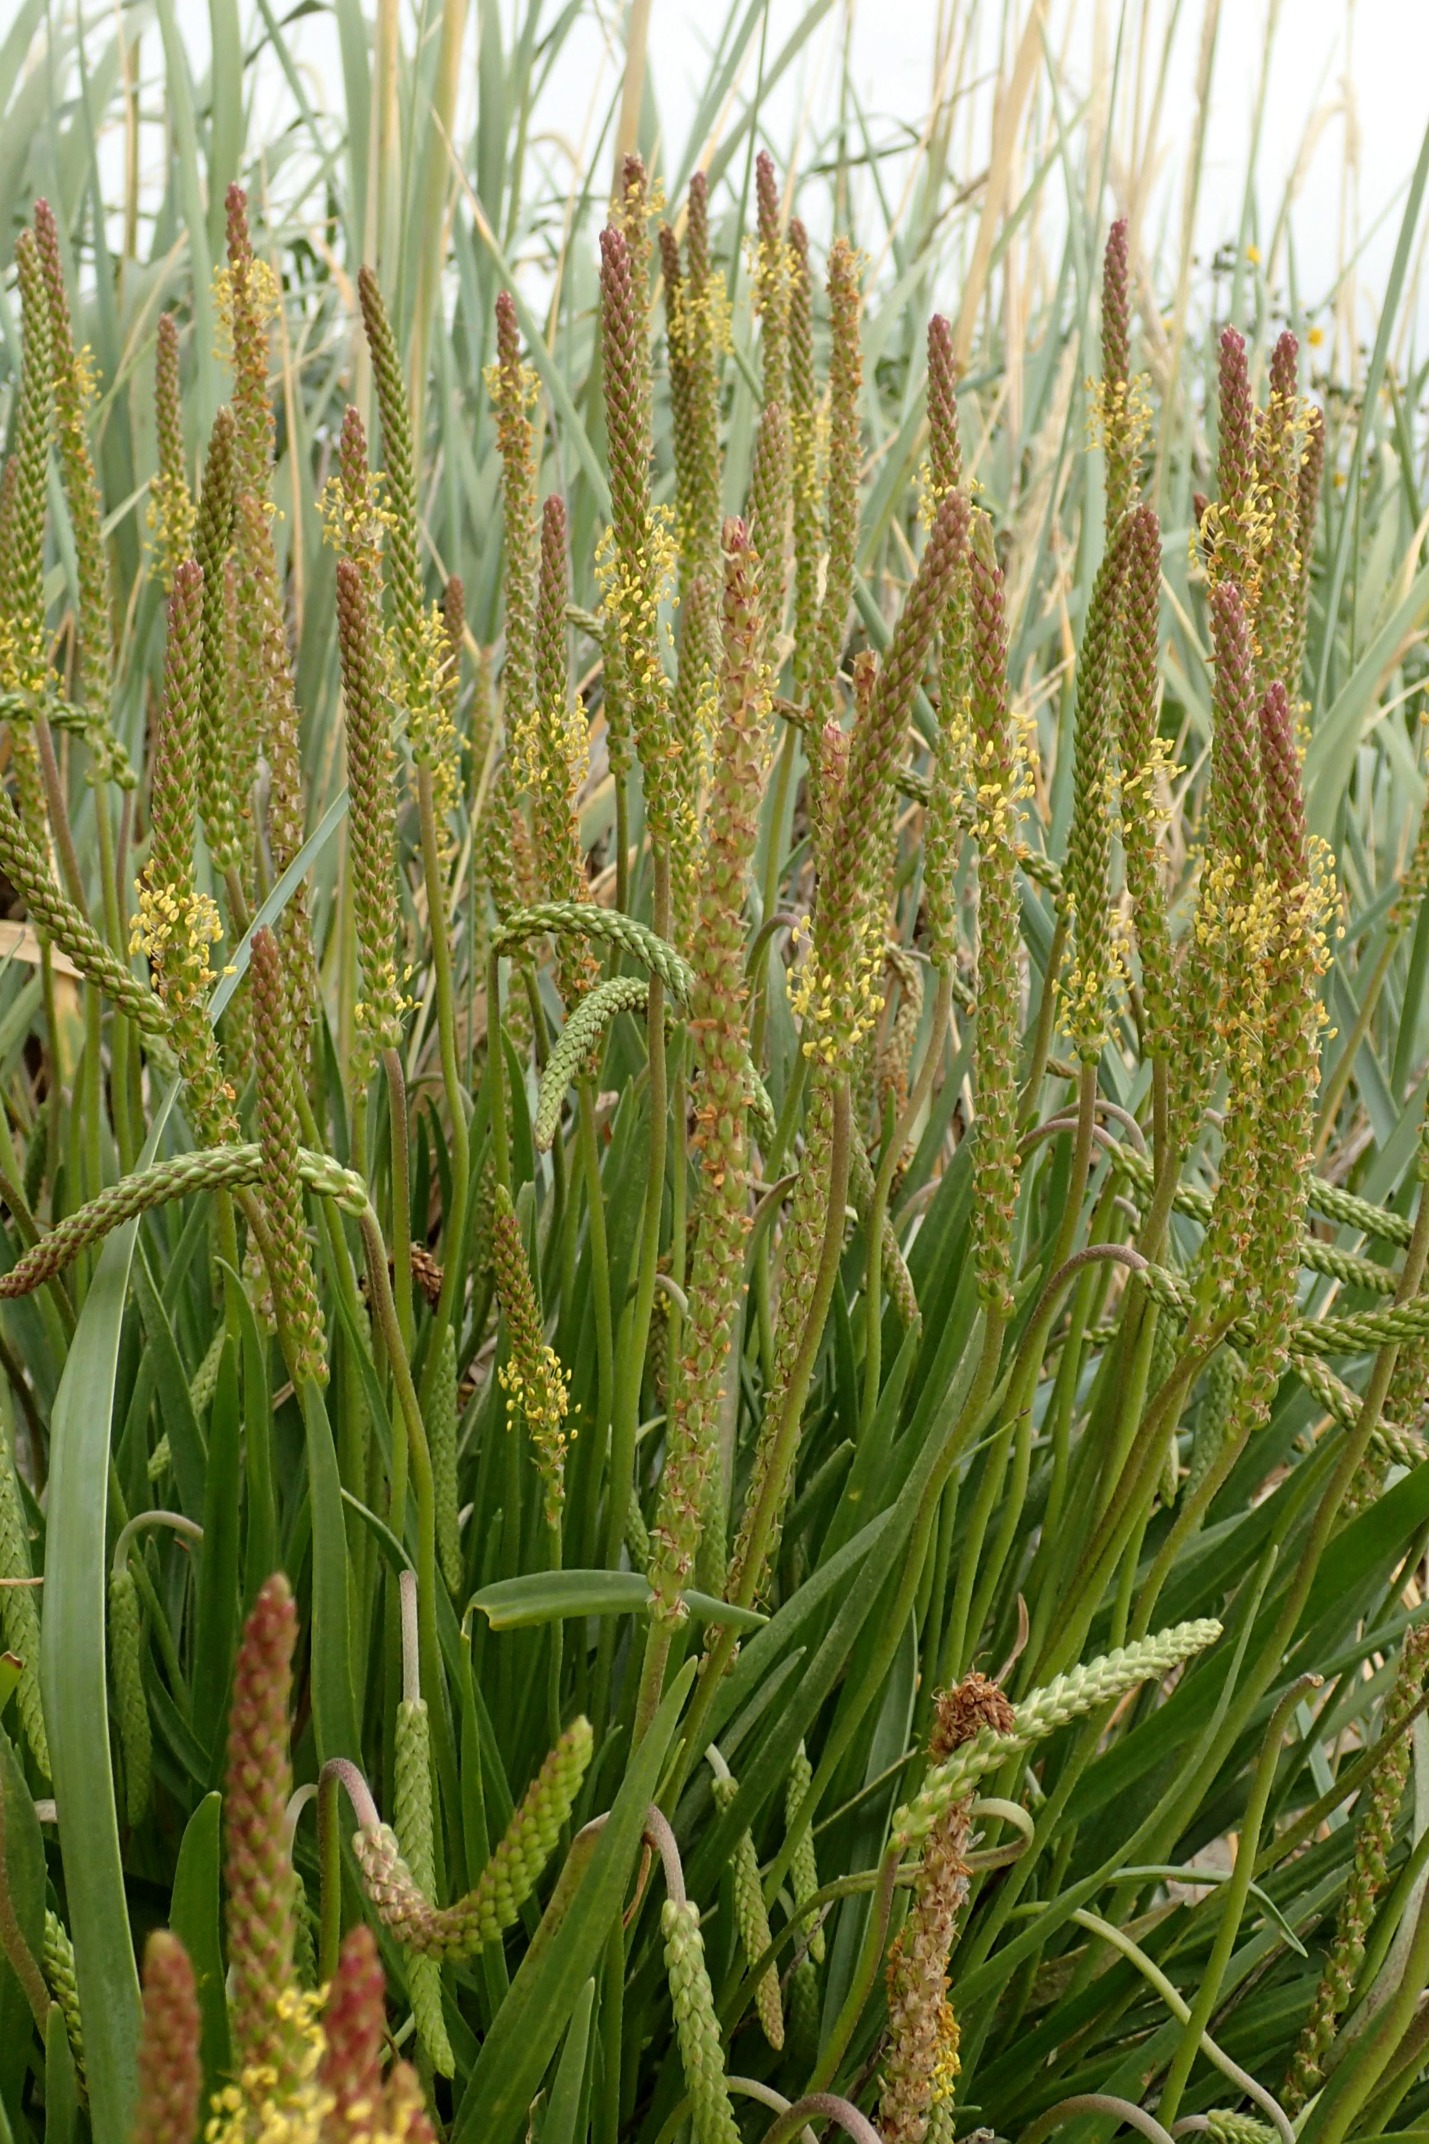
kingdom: Plantae
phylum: Tracheophyta
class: Magnoliopsida
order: Lamiales
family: Plantaginaceae
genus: Plantago
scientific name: Plantago maritima
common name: Strand-vejbred
